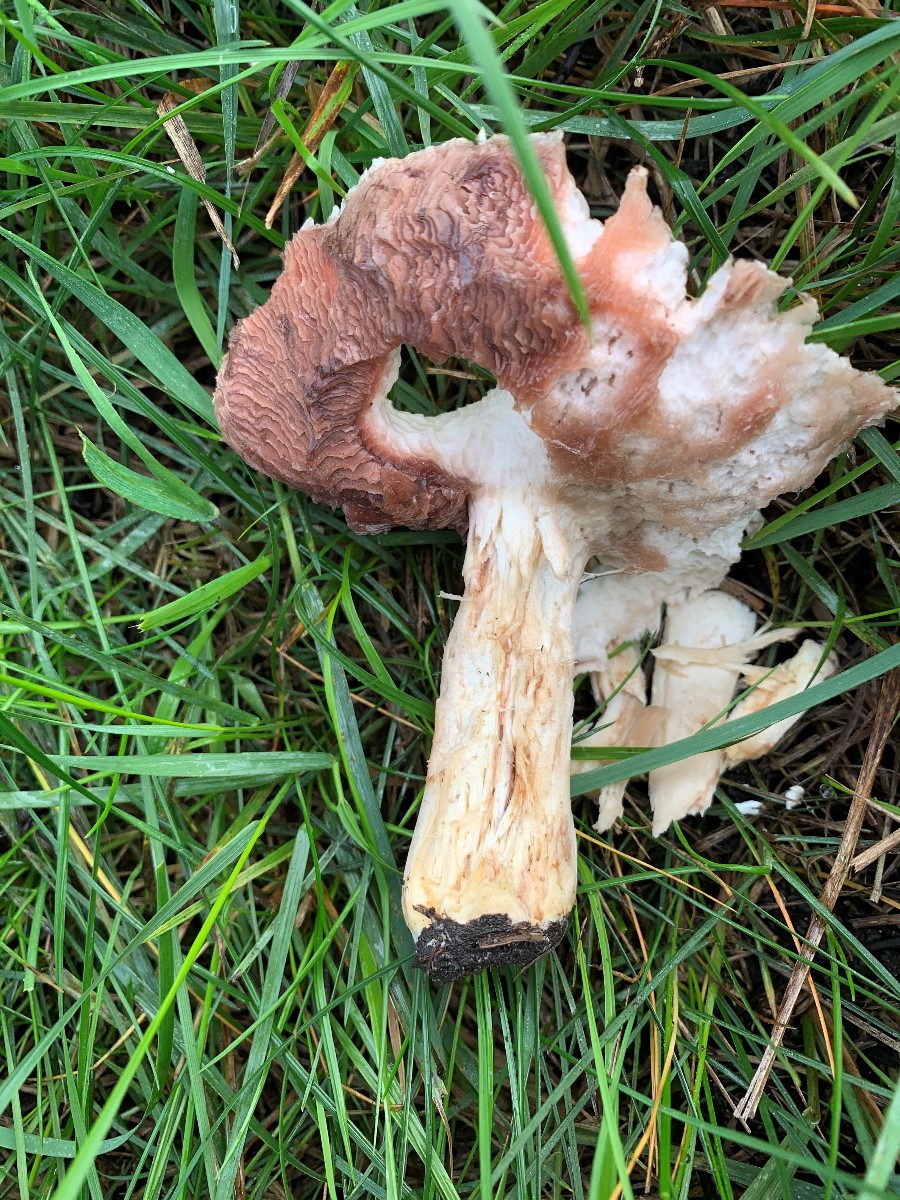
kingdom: Fungi
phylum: Basidiomycota
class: Agaricomycetes
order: Agaricales
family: Agaricaceae
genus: Agaricus
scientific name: Agaricus
